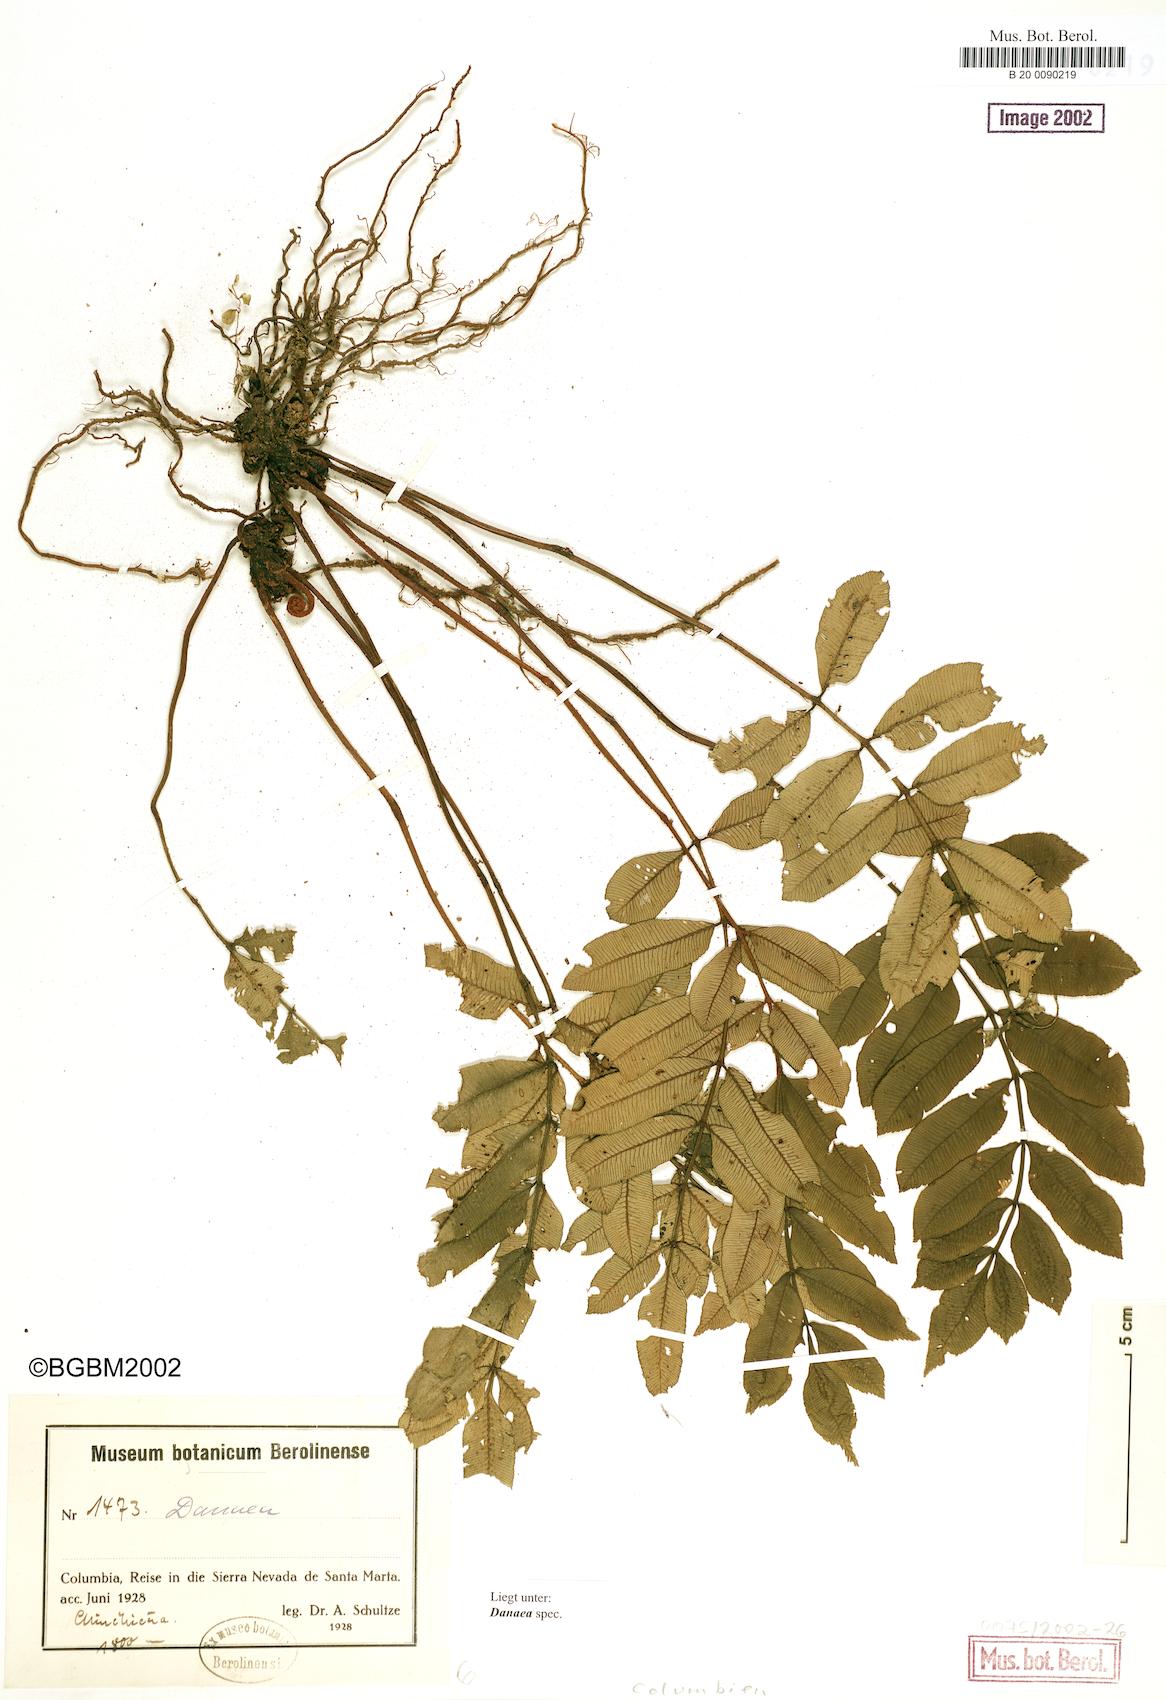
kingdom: Plantae
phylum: Tracheophyta
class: Polypodiopsida
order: Marattiales
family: Marattiaceae
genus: Danaea
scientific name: Danaea
